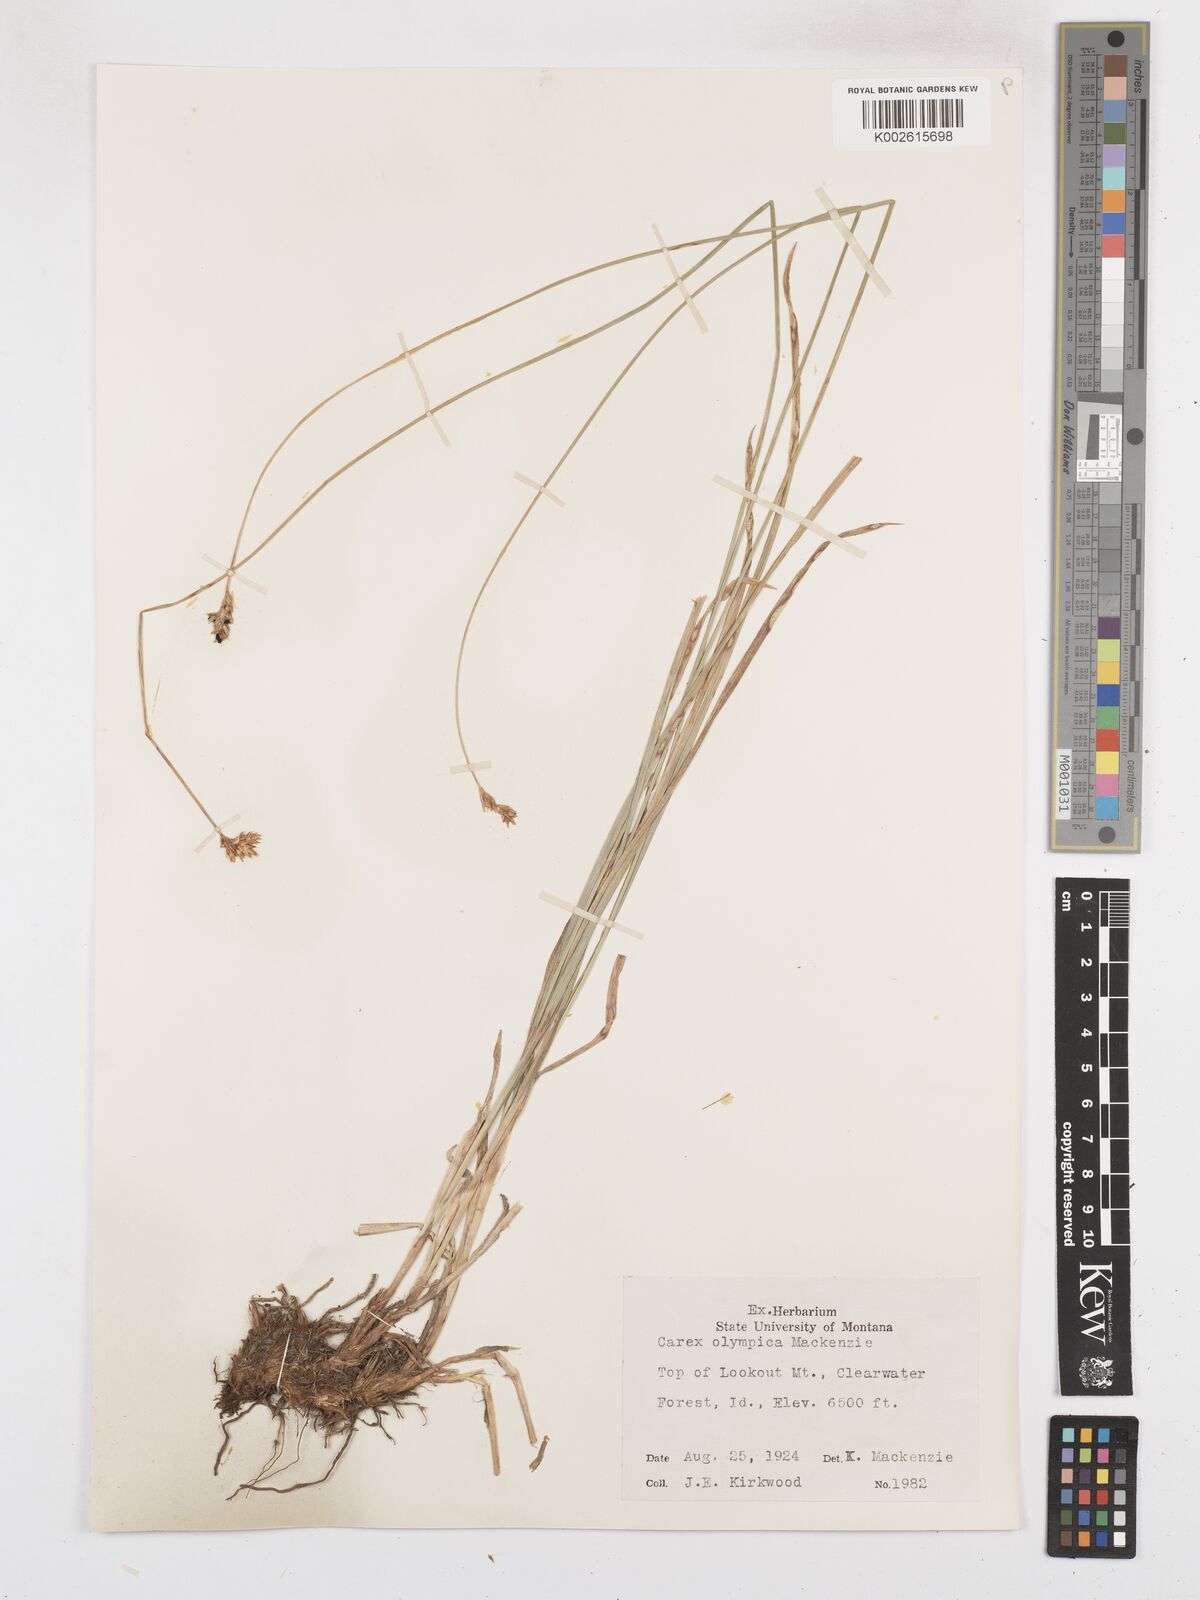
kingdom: Plantae
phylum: Tracheophyta
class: Liliopsida
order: Poales
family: Cyperaceae
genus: Carex
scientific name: Carex pachystachya
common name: Chamisso's sedge
